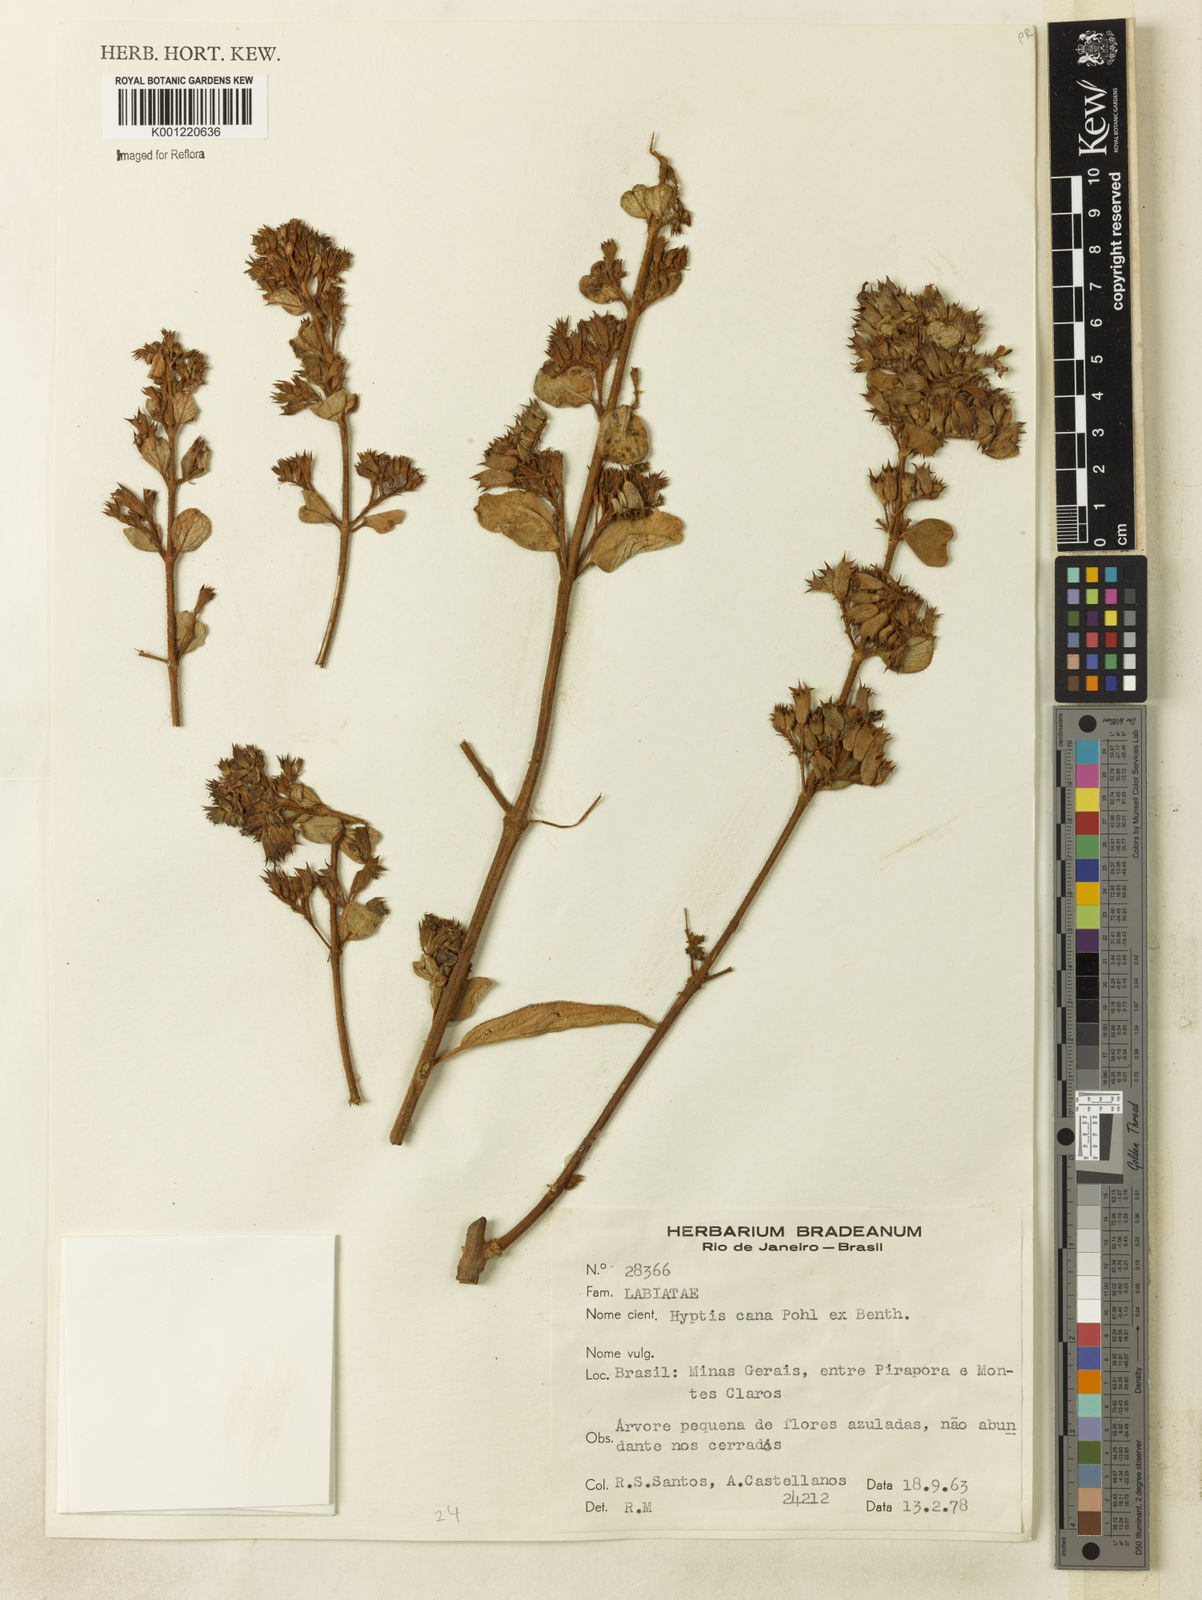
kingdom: Plantae
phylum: Tracheophyta
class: Magnoliopsida
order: Lamiales
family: Lamiaceae
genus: Hyptidendron
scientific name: Hyptidendron canum
